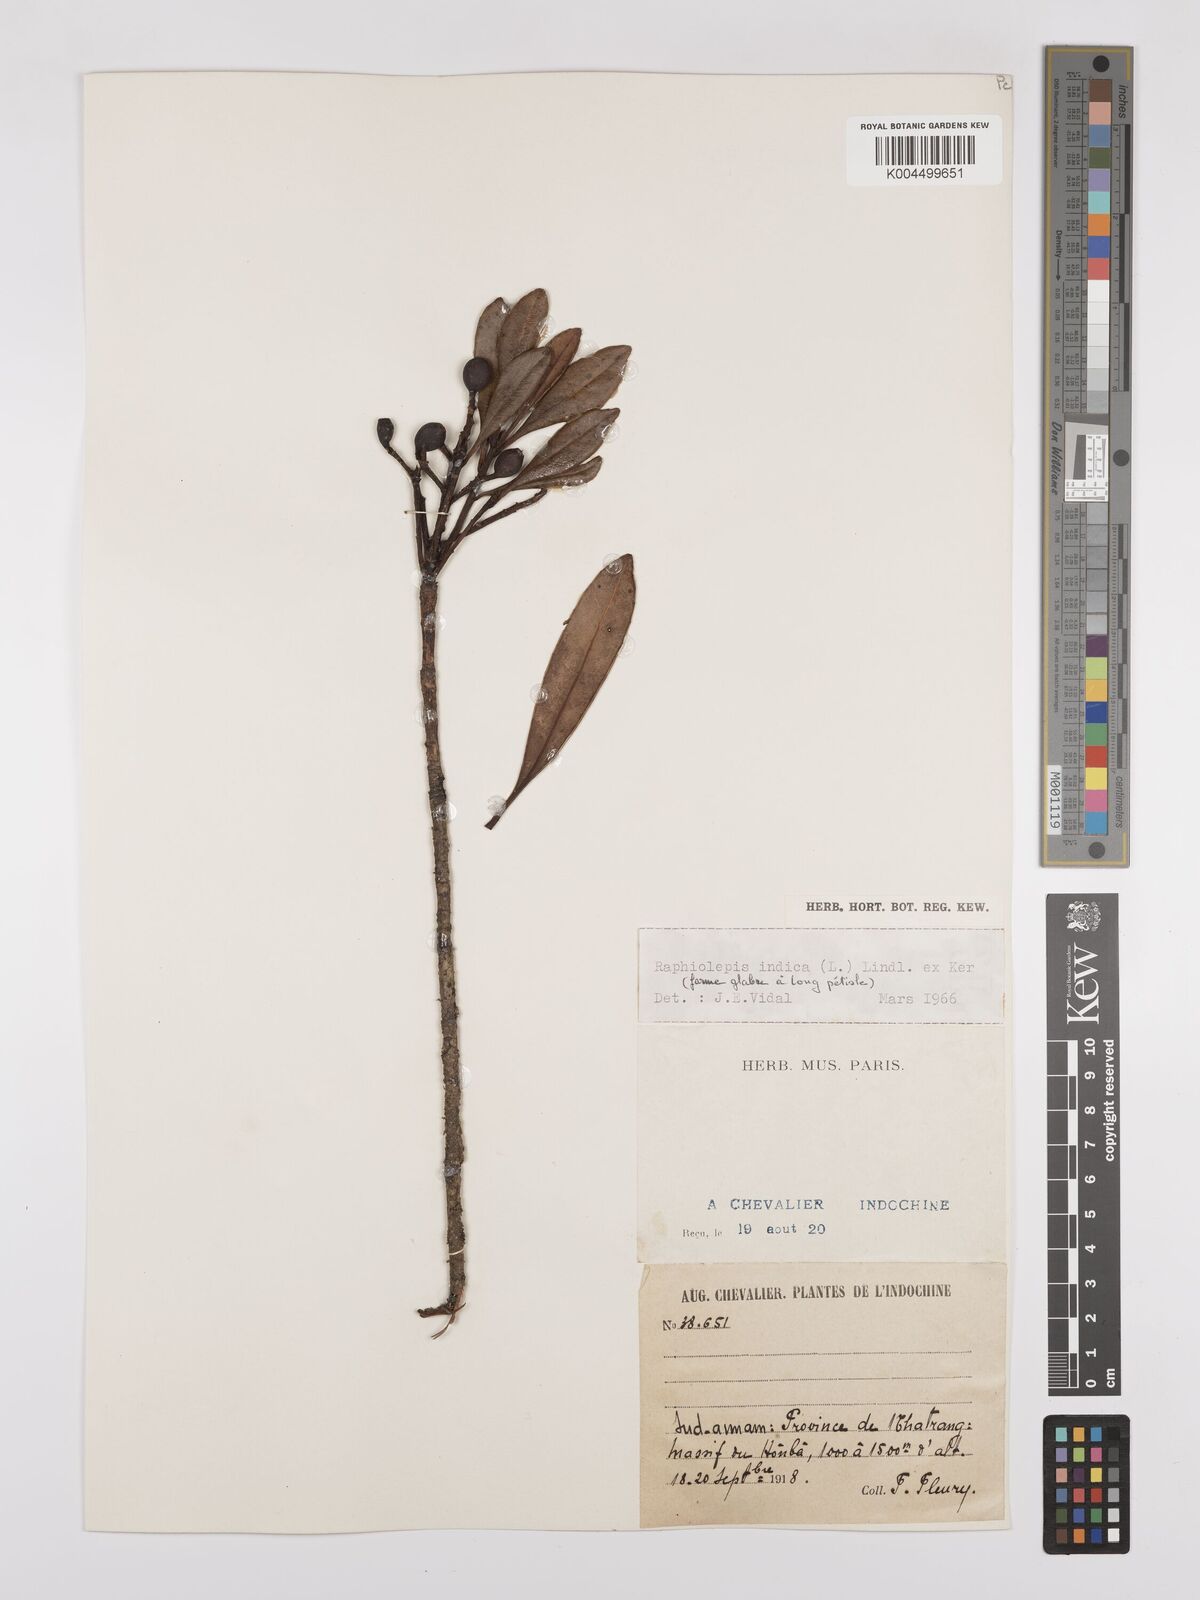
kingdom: Plantae
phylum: Tracheophyta
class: Magnoliopsida
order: Rosales
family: Rosaceae
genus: Rhaphiolepis
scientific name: Rhaphiolepis indica
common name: India-hawthorn
